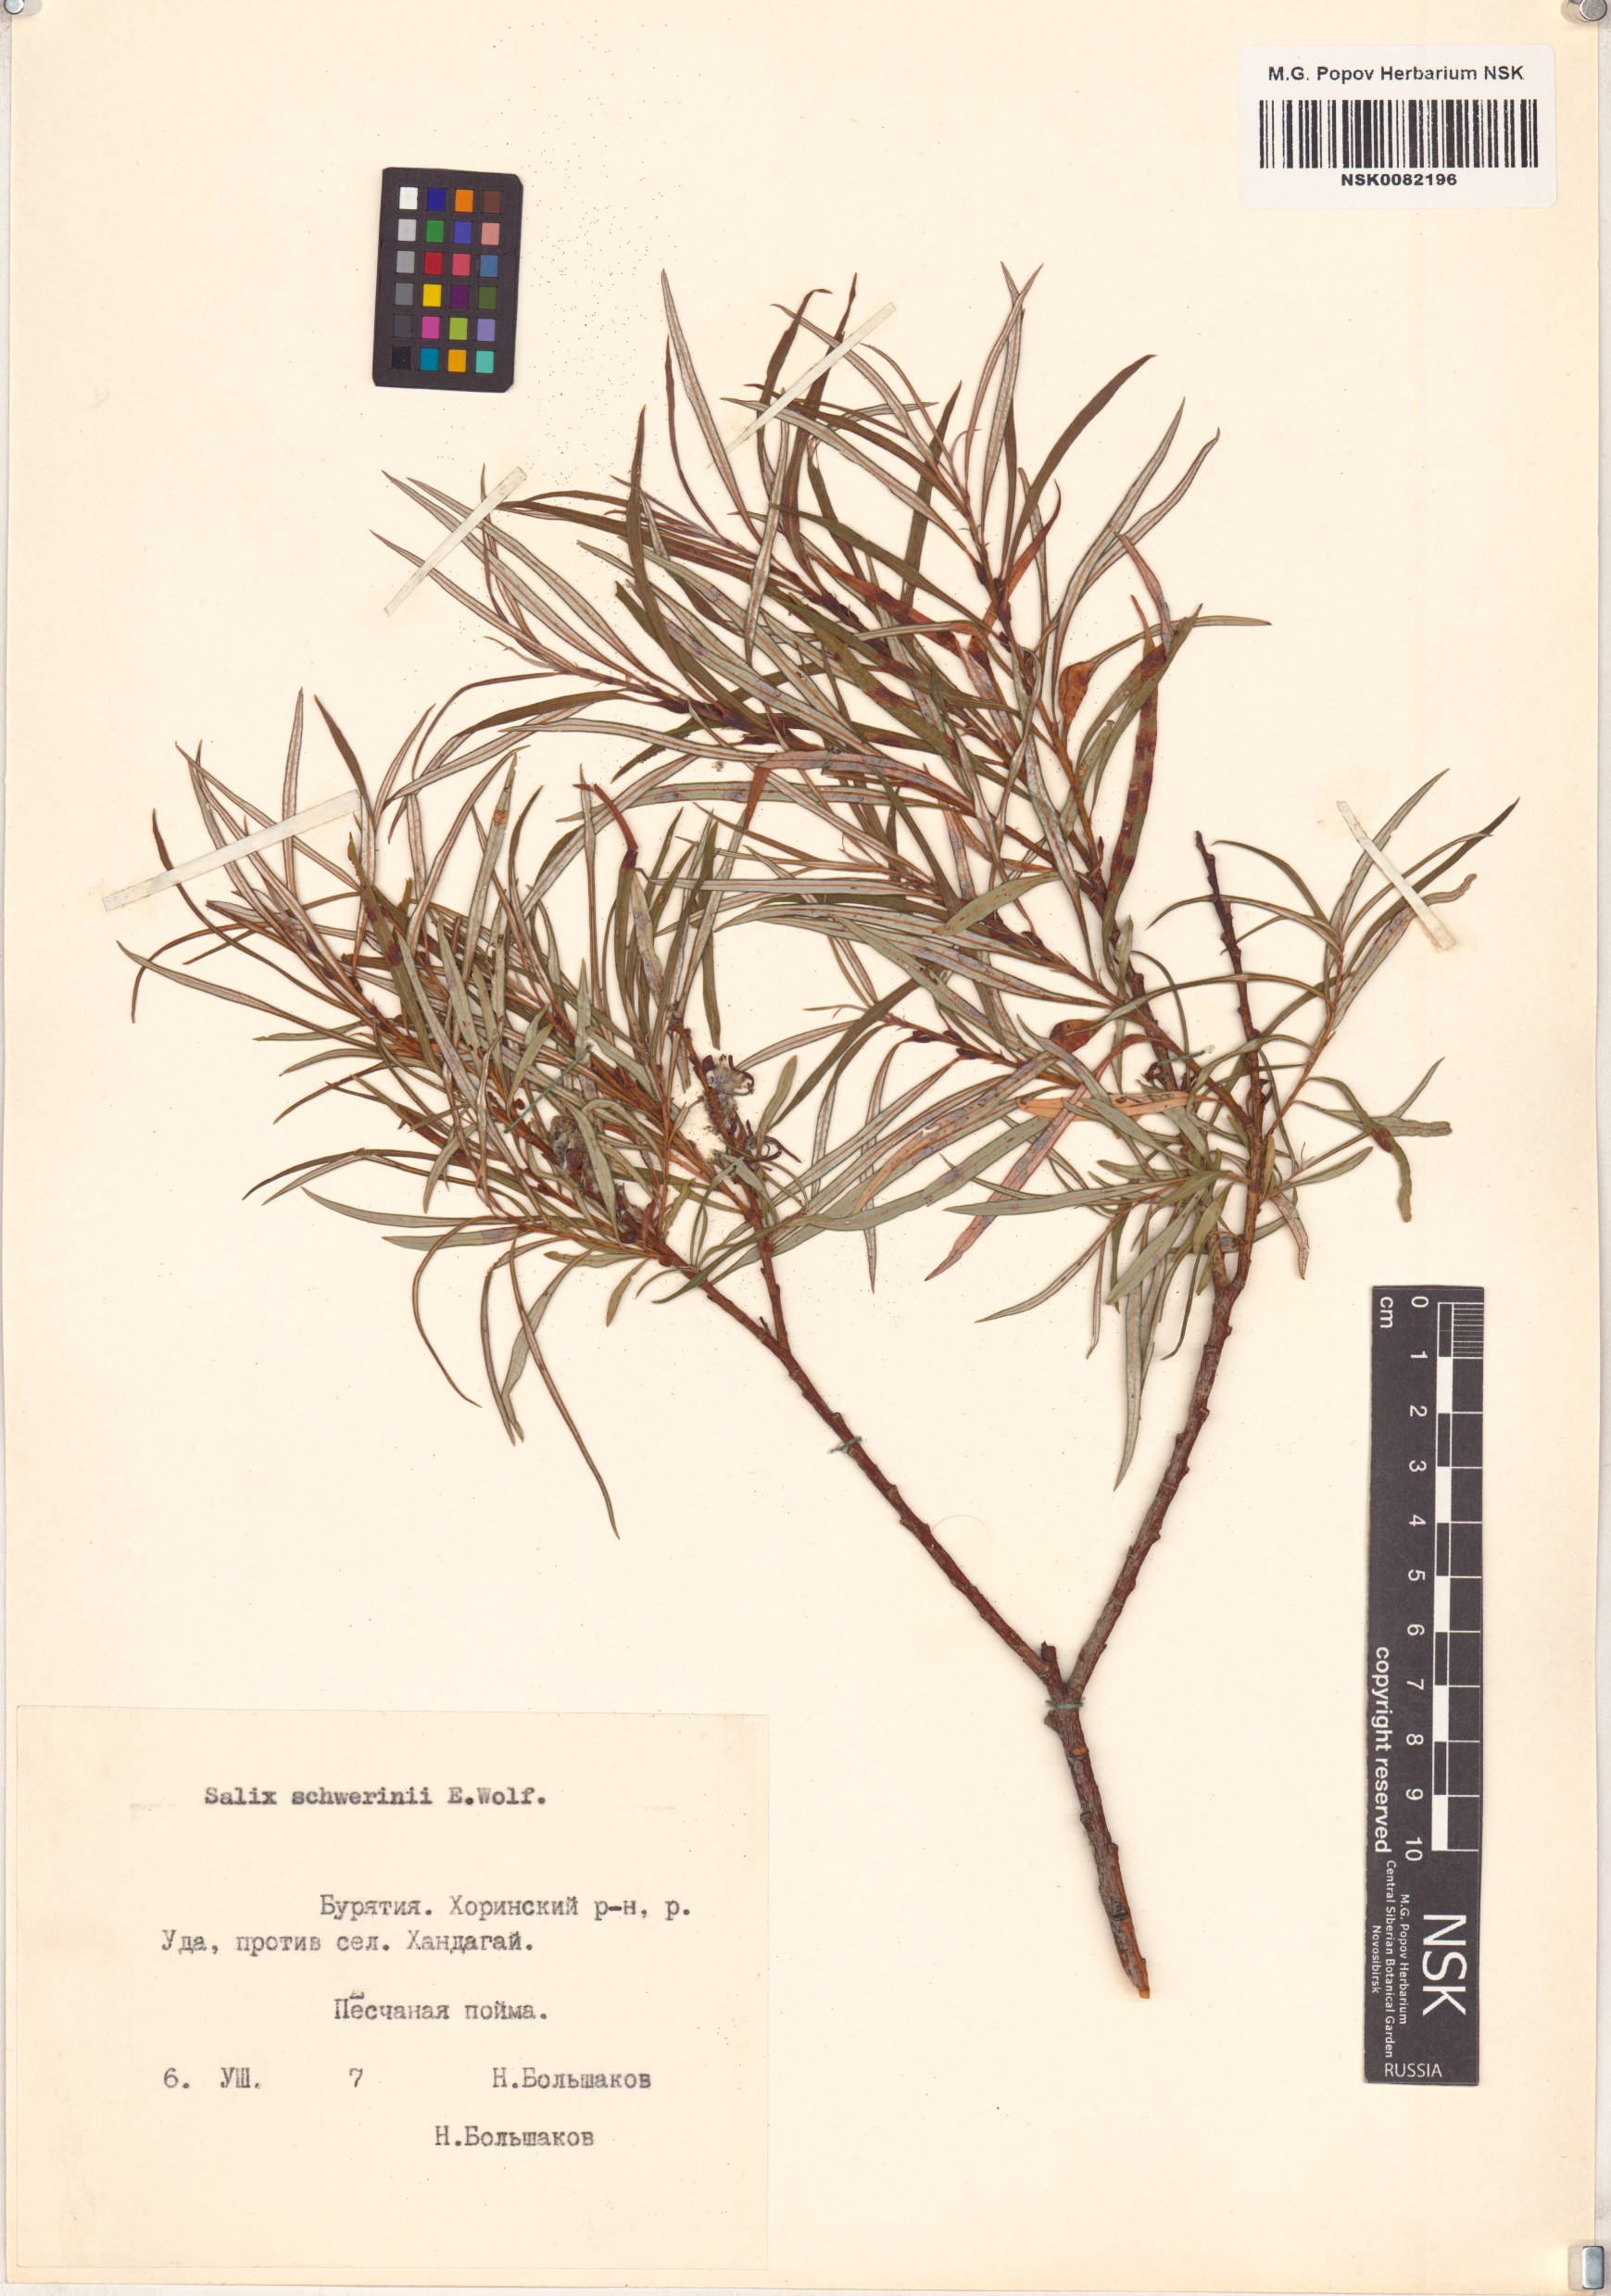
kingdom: Plantae
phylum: Tracheophyta
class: Magnoliopsida
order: Malpighiales
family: Salicaceae
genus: Salix
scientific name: Salix schwerinii
